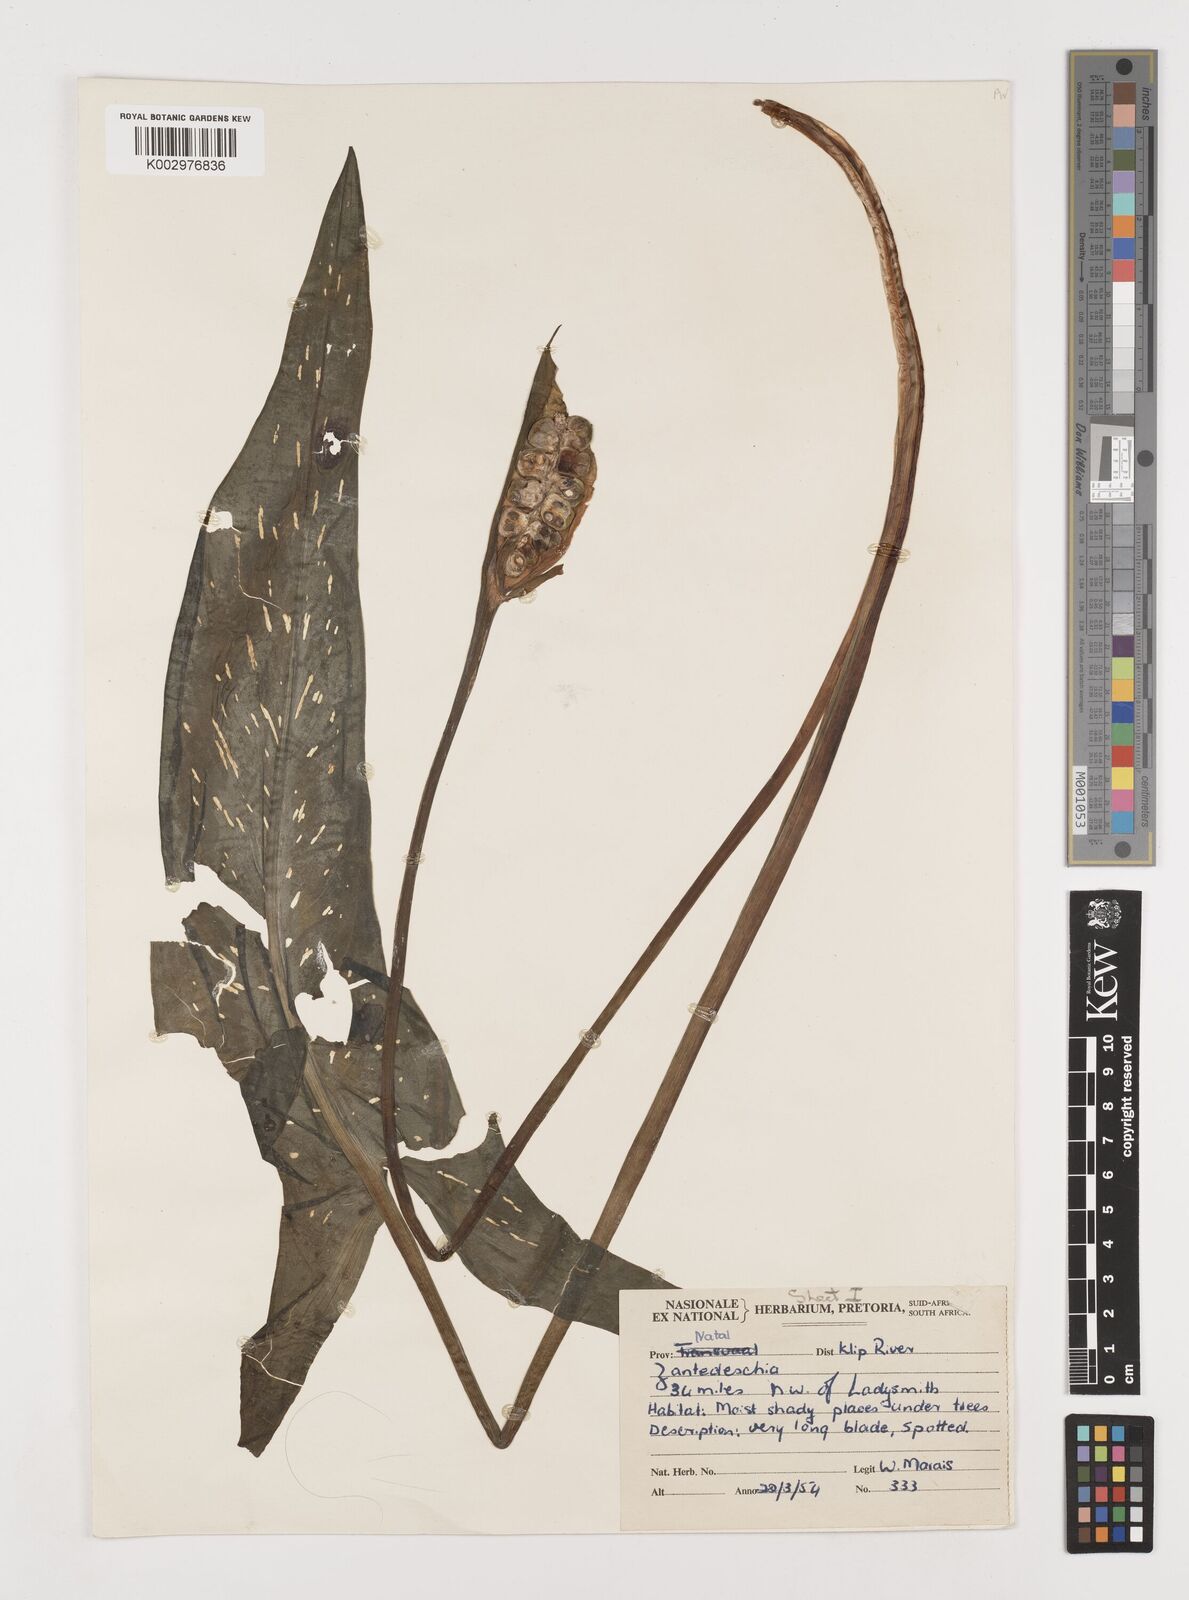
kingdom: Plantae
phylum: Tracheophyta
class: Liliopsida
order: Alismatales
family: Araceae
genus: Zantedeschia
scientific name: Zantedeschia albomaculata
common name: Spotted calla lily
